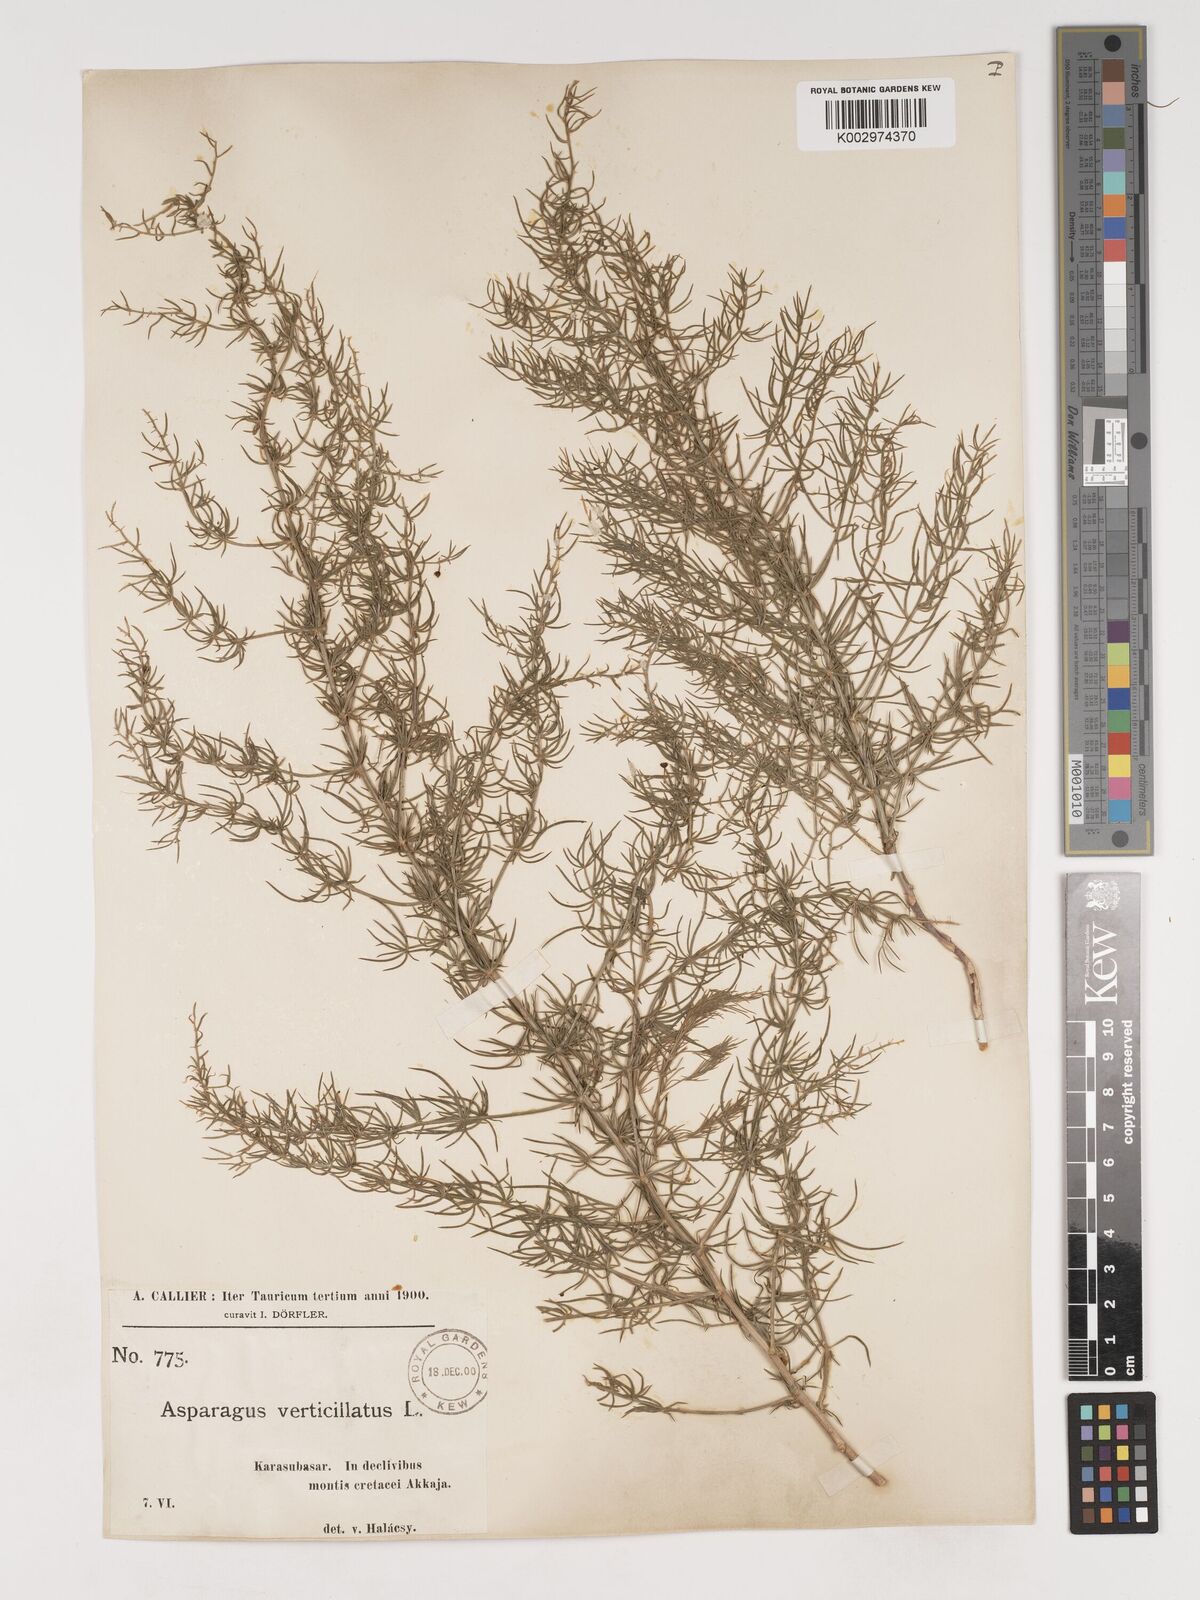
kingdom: Plantae
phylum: Tracheophyta
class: Liliopsida
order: Asparagales
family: Asparagaceae
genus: Asparagus
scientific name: Asparagus verticillatus
